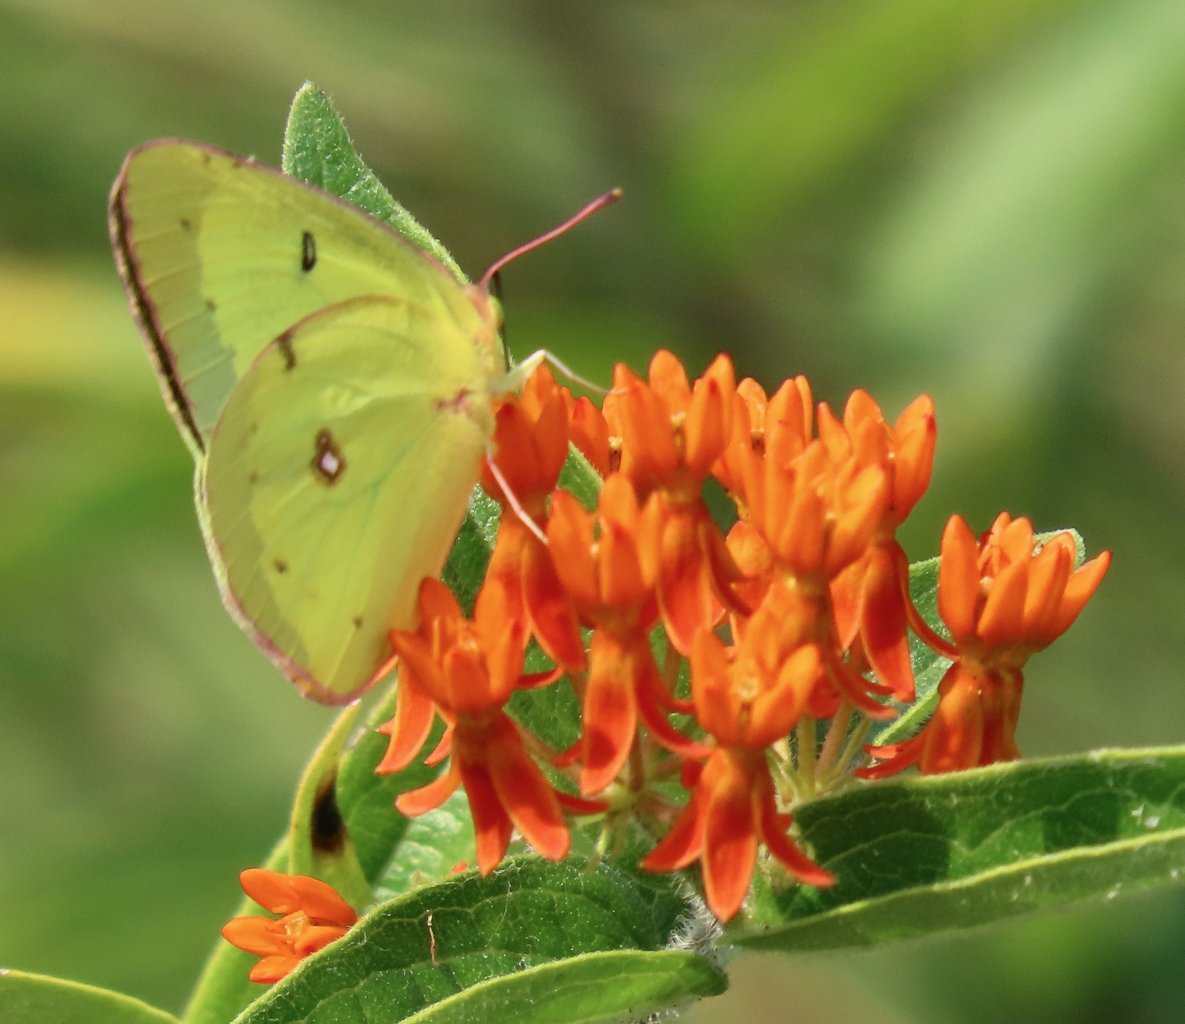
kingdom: Animalia
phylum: Arthropoda
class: Insecta
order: Lepidoptera
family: Pieridae
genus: Colias
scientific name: Colias philodice
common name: Clouded Sulphur
